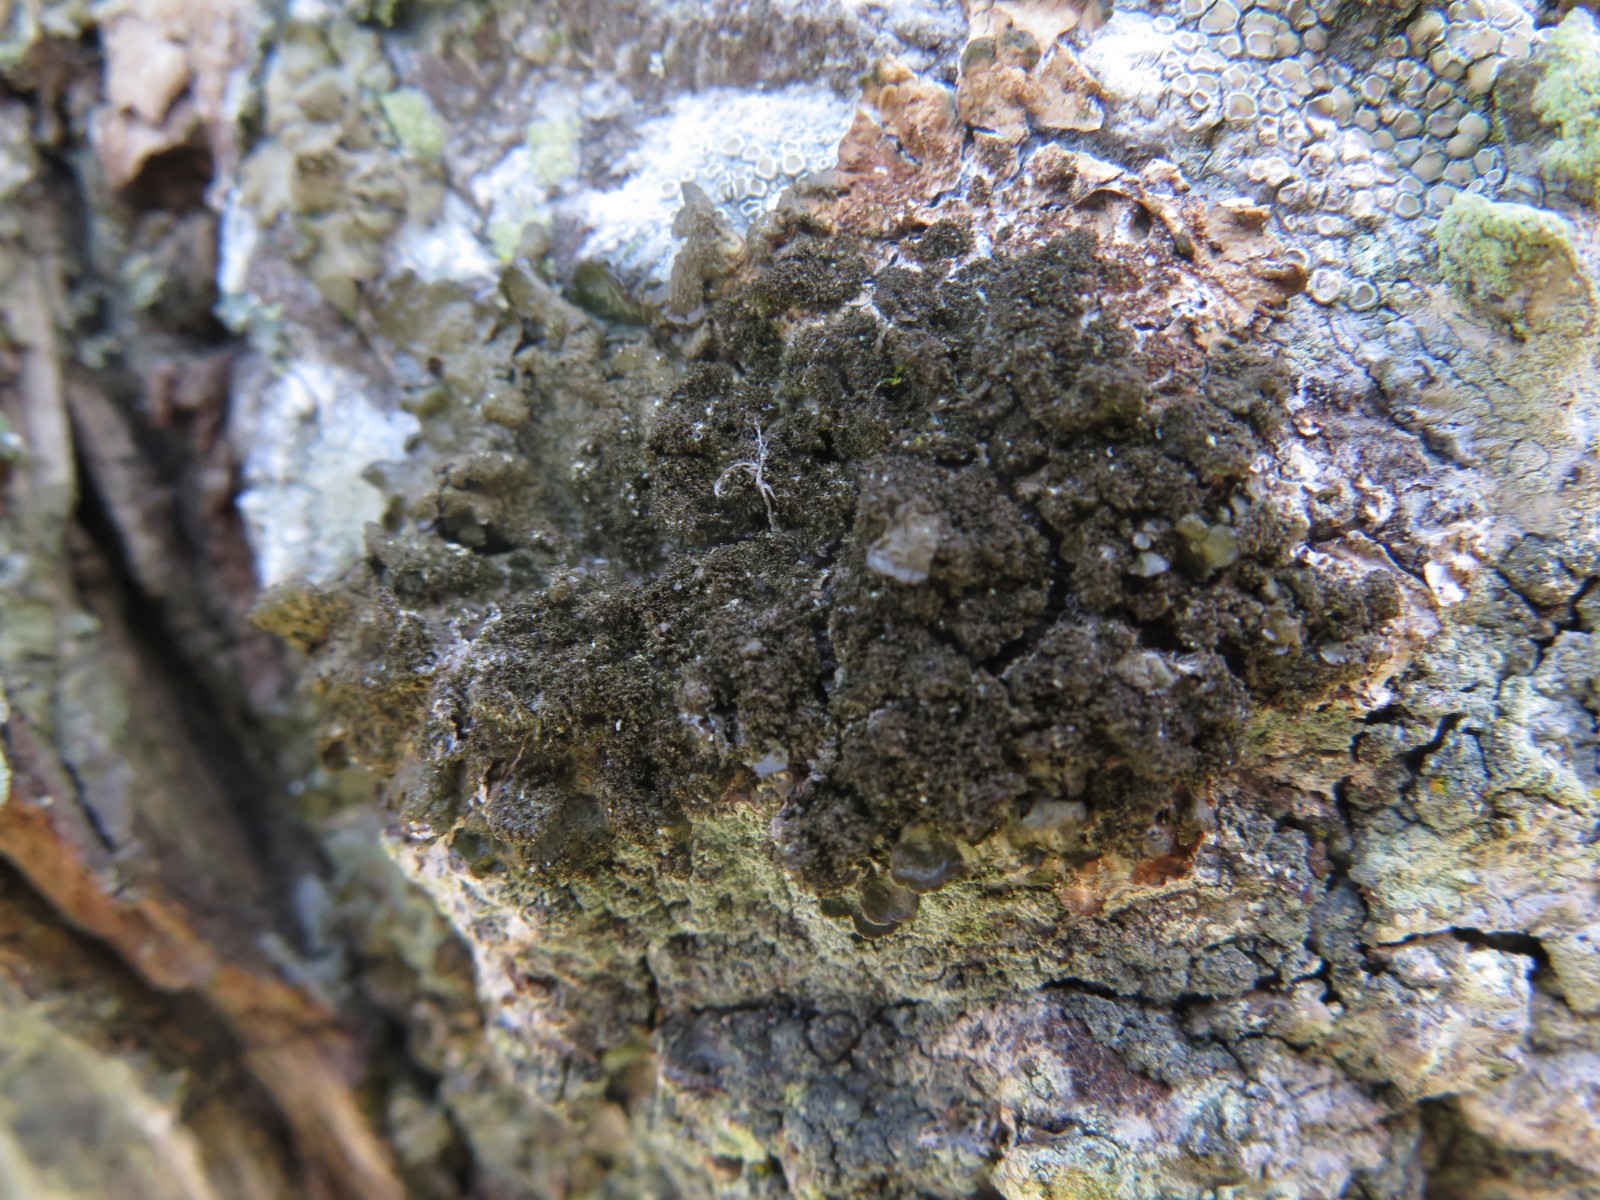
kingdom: Fungi
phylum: Ascomycota
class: Lecanoromycetes
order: Lecanorales
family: Parmeliaceae
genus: Melanohalea
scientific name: Melanohalea elegantula
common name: elegant skållav
